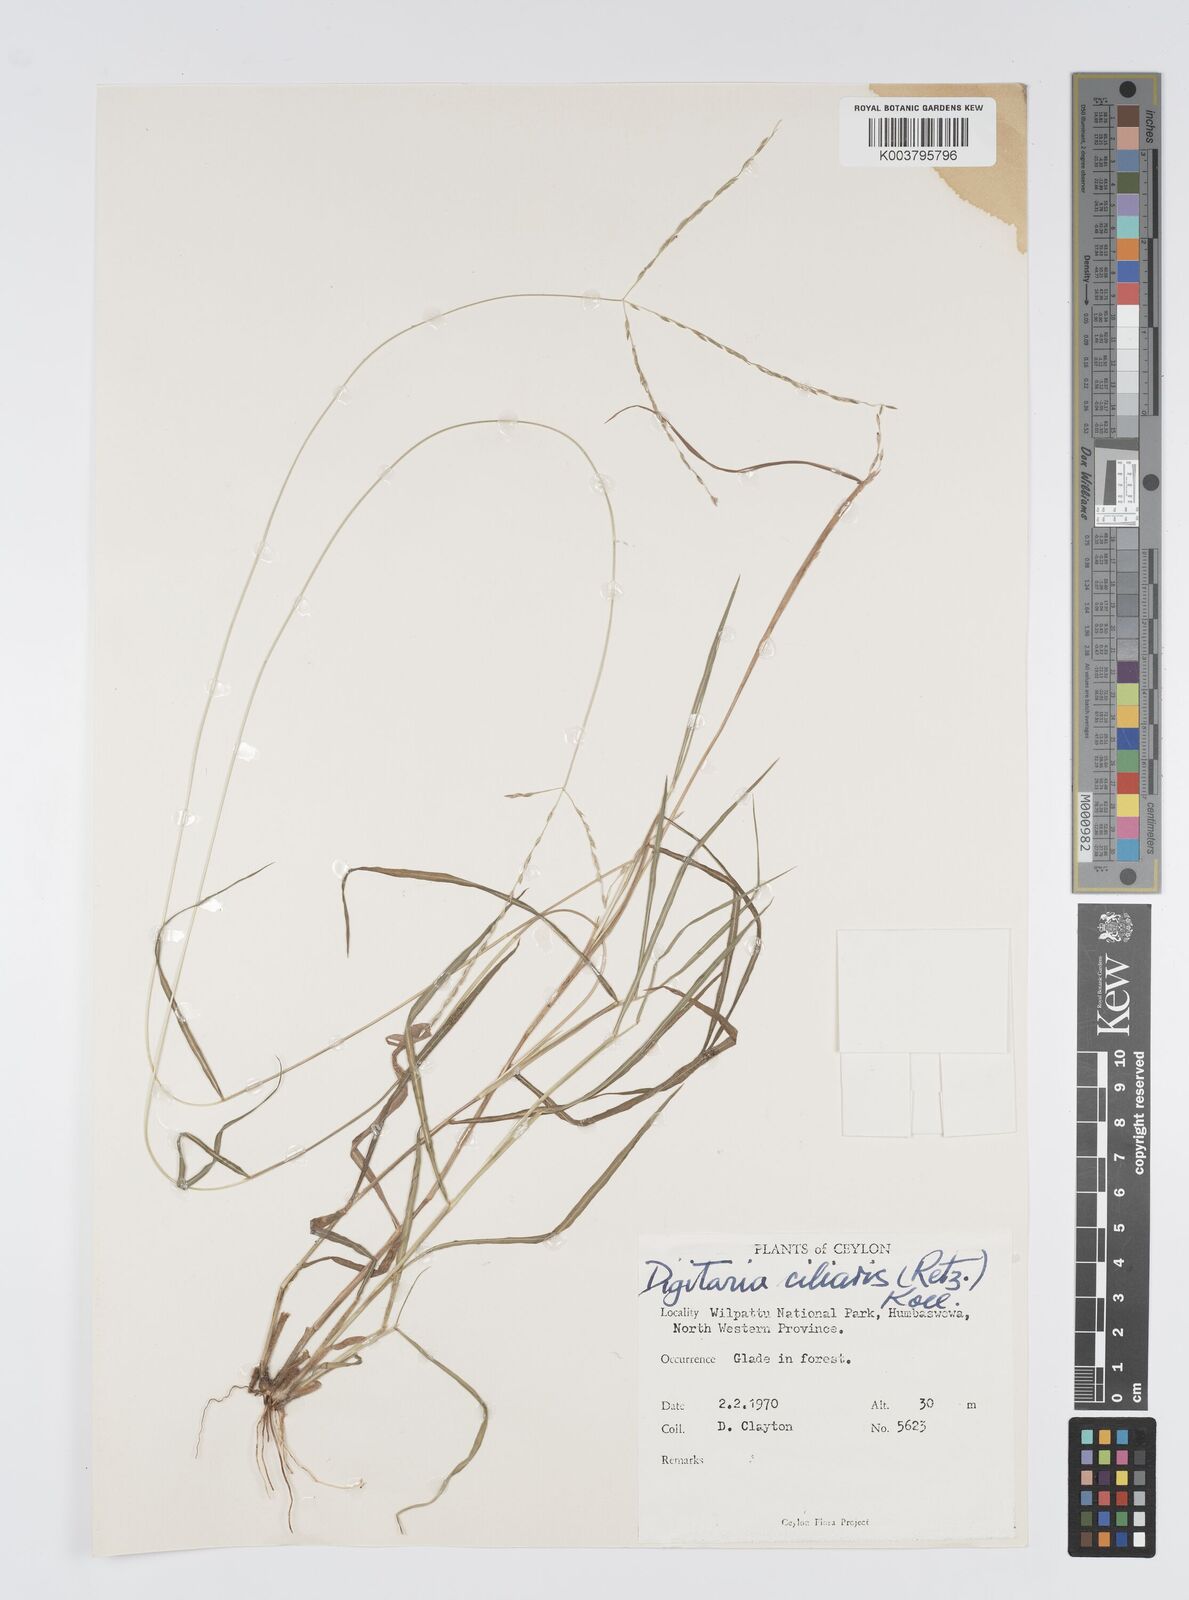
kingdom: Plantae
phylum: Tracheophyta
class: Liliopsida
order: Poales
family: Poaceae
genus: Digitaria
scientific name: Digitaria junghuhniana
